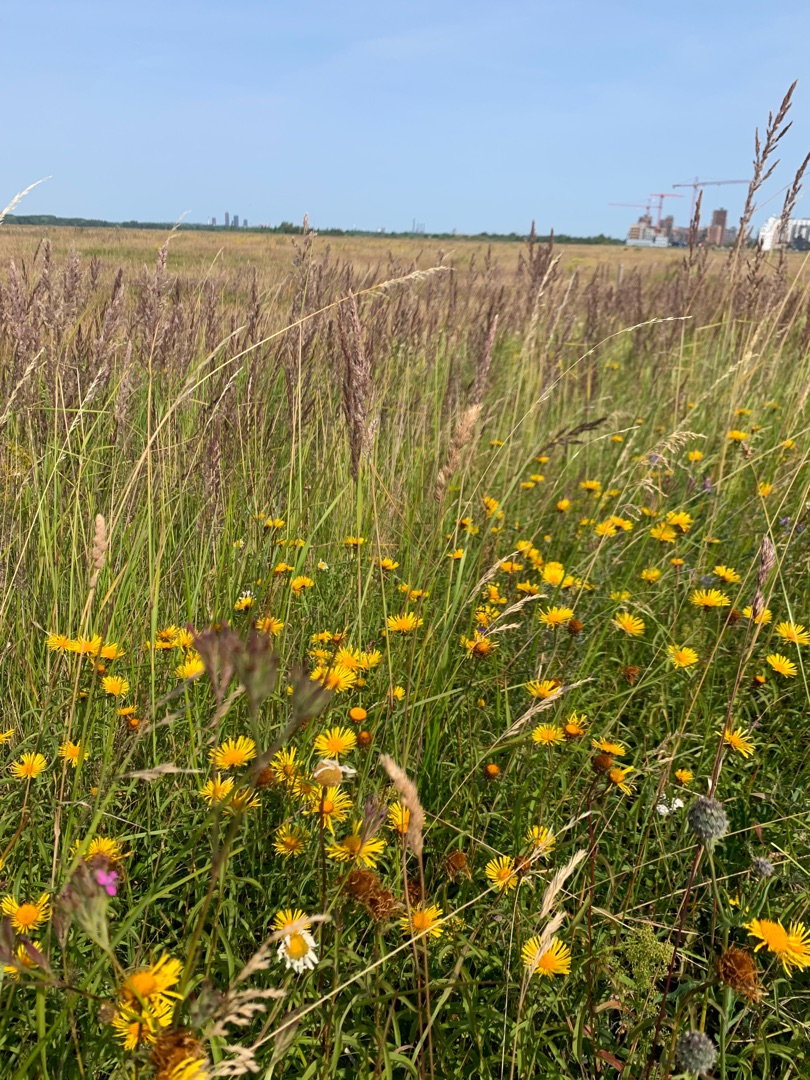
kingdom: Plantae
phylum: Tracheophyta
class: Liliopsida
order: Poales
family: Poaceae
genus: Dactylis
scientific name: Dactylis glomerata
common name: Almindelig hundegræs
